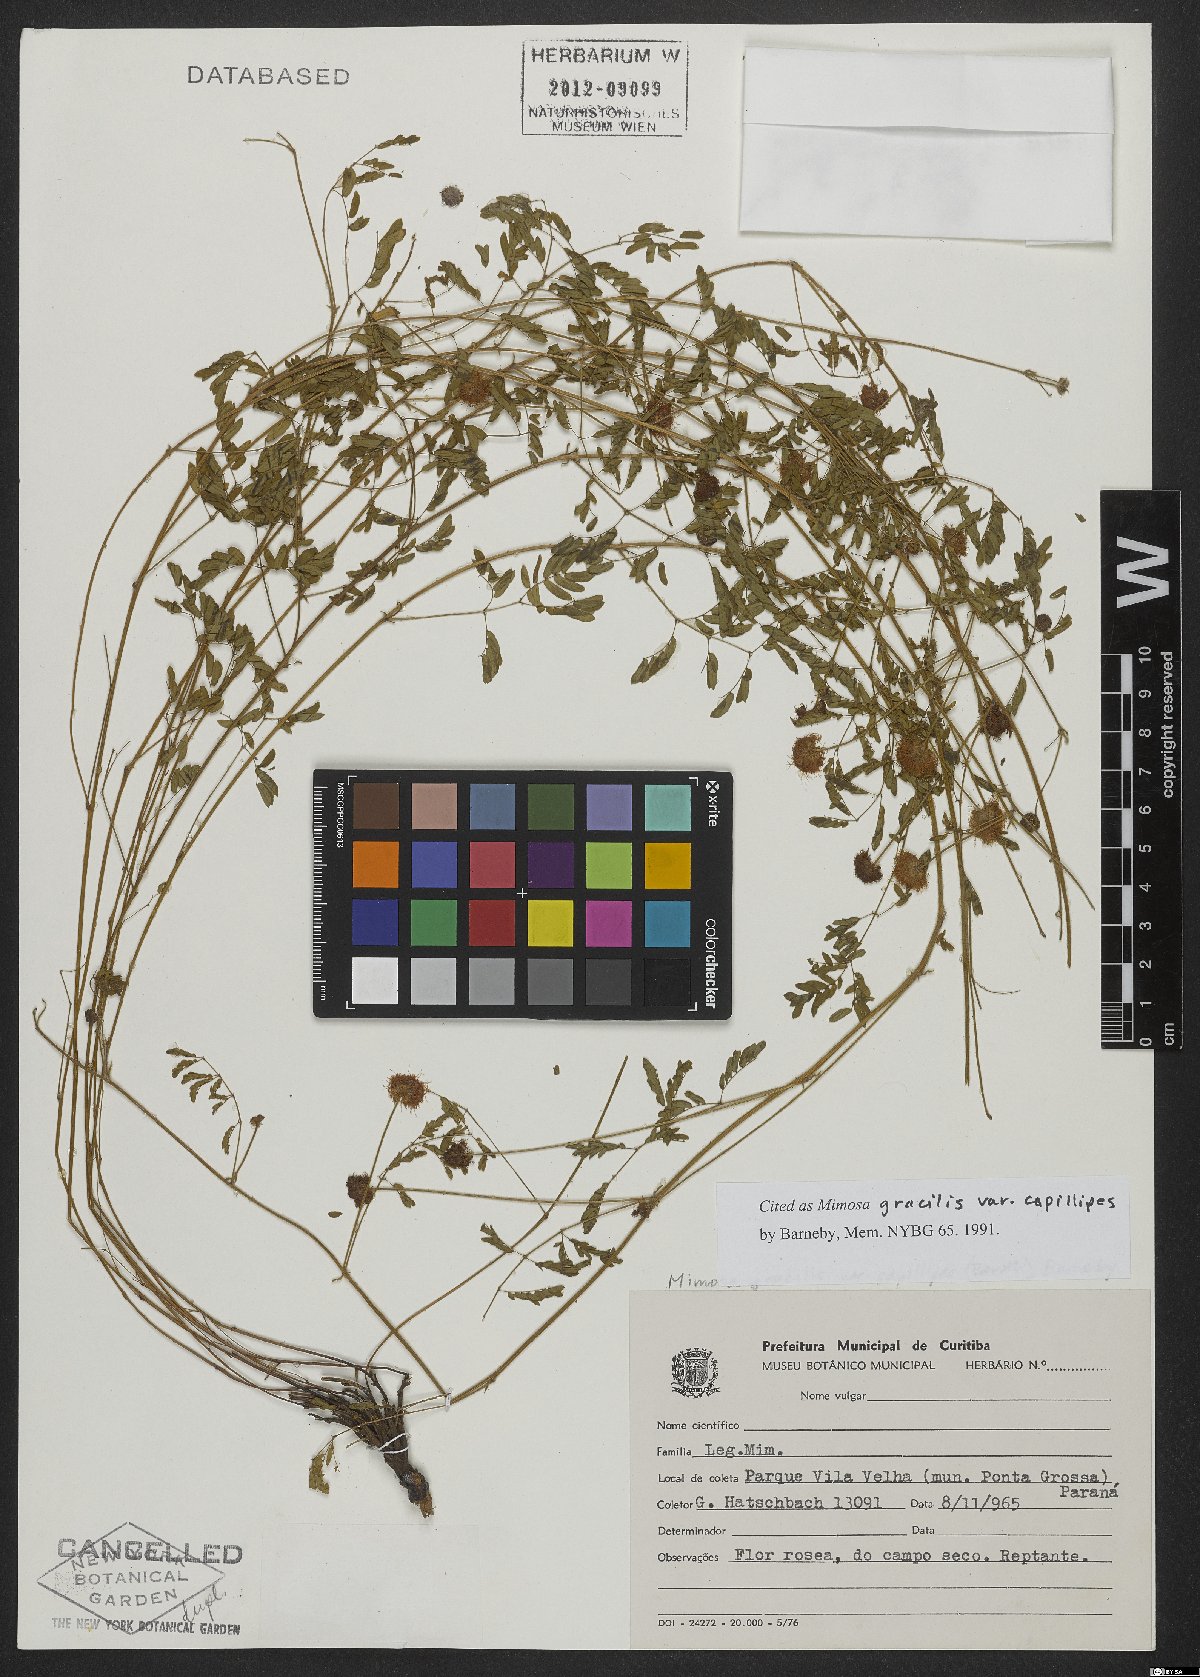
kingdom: Plantae
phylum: Tracheophyta
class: Magnoliopsida
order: Fabales
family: Fabaceae
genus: Mimosa
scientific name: Mimosa gracilis
